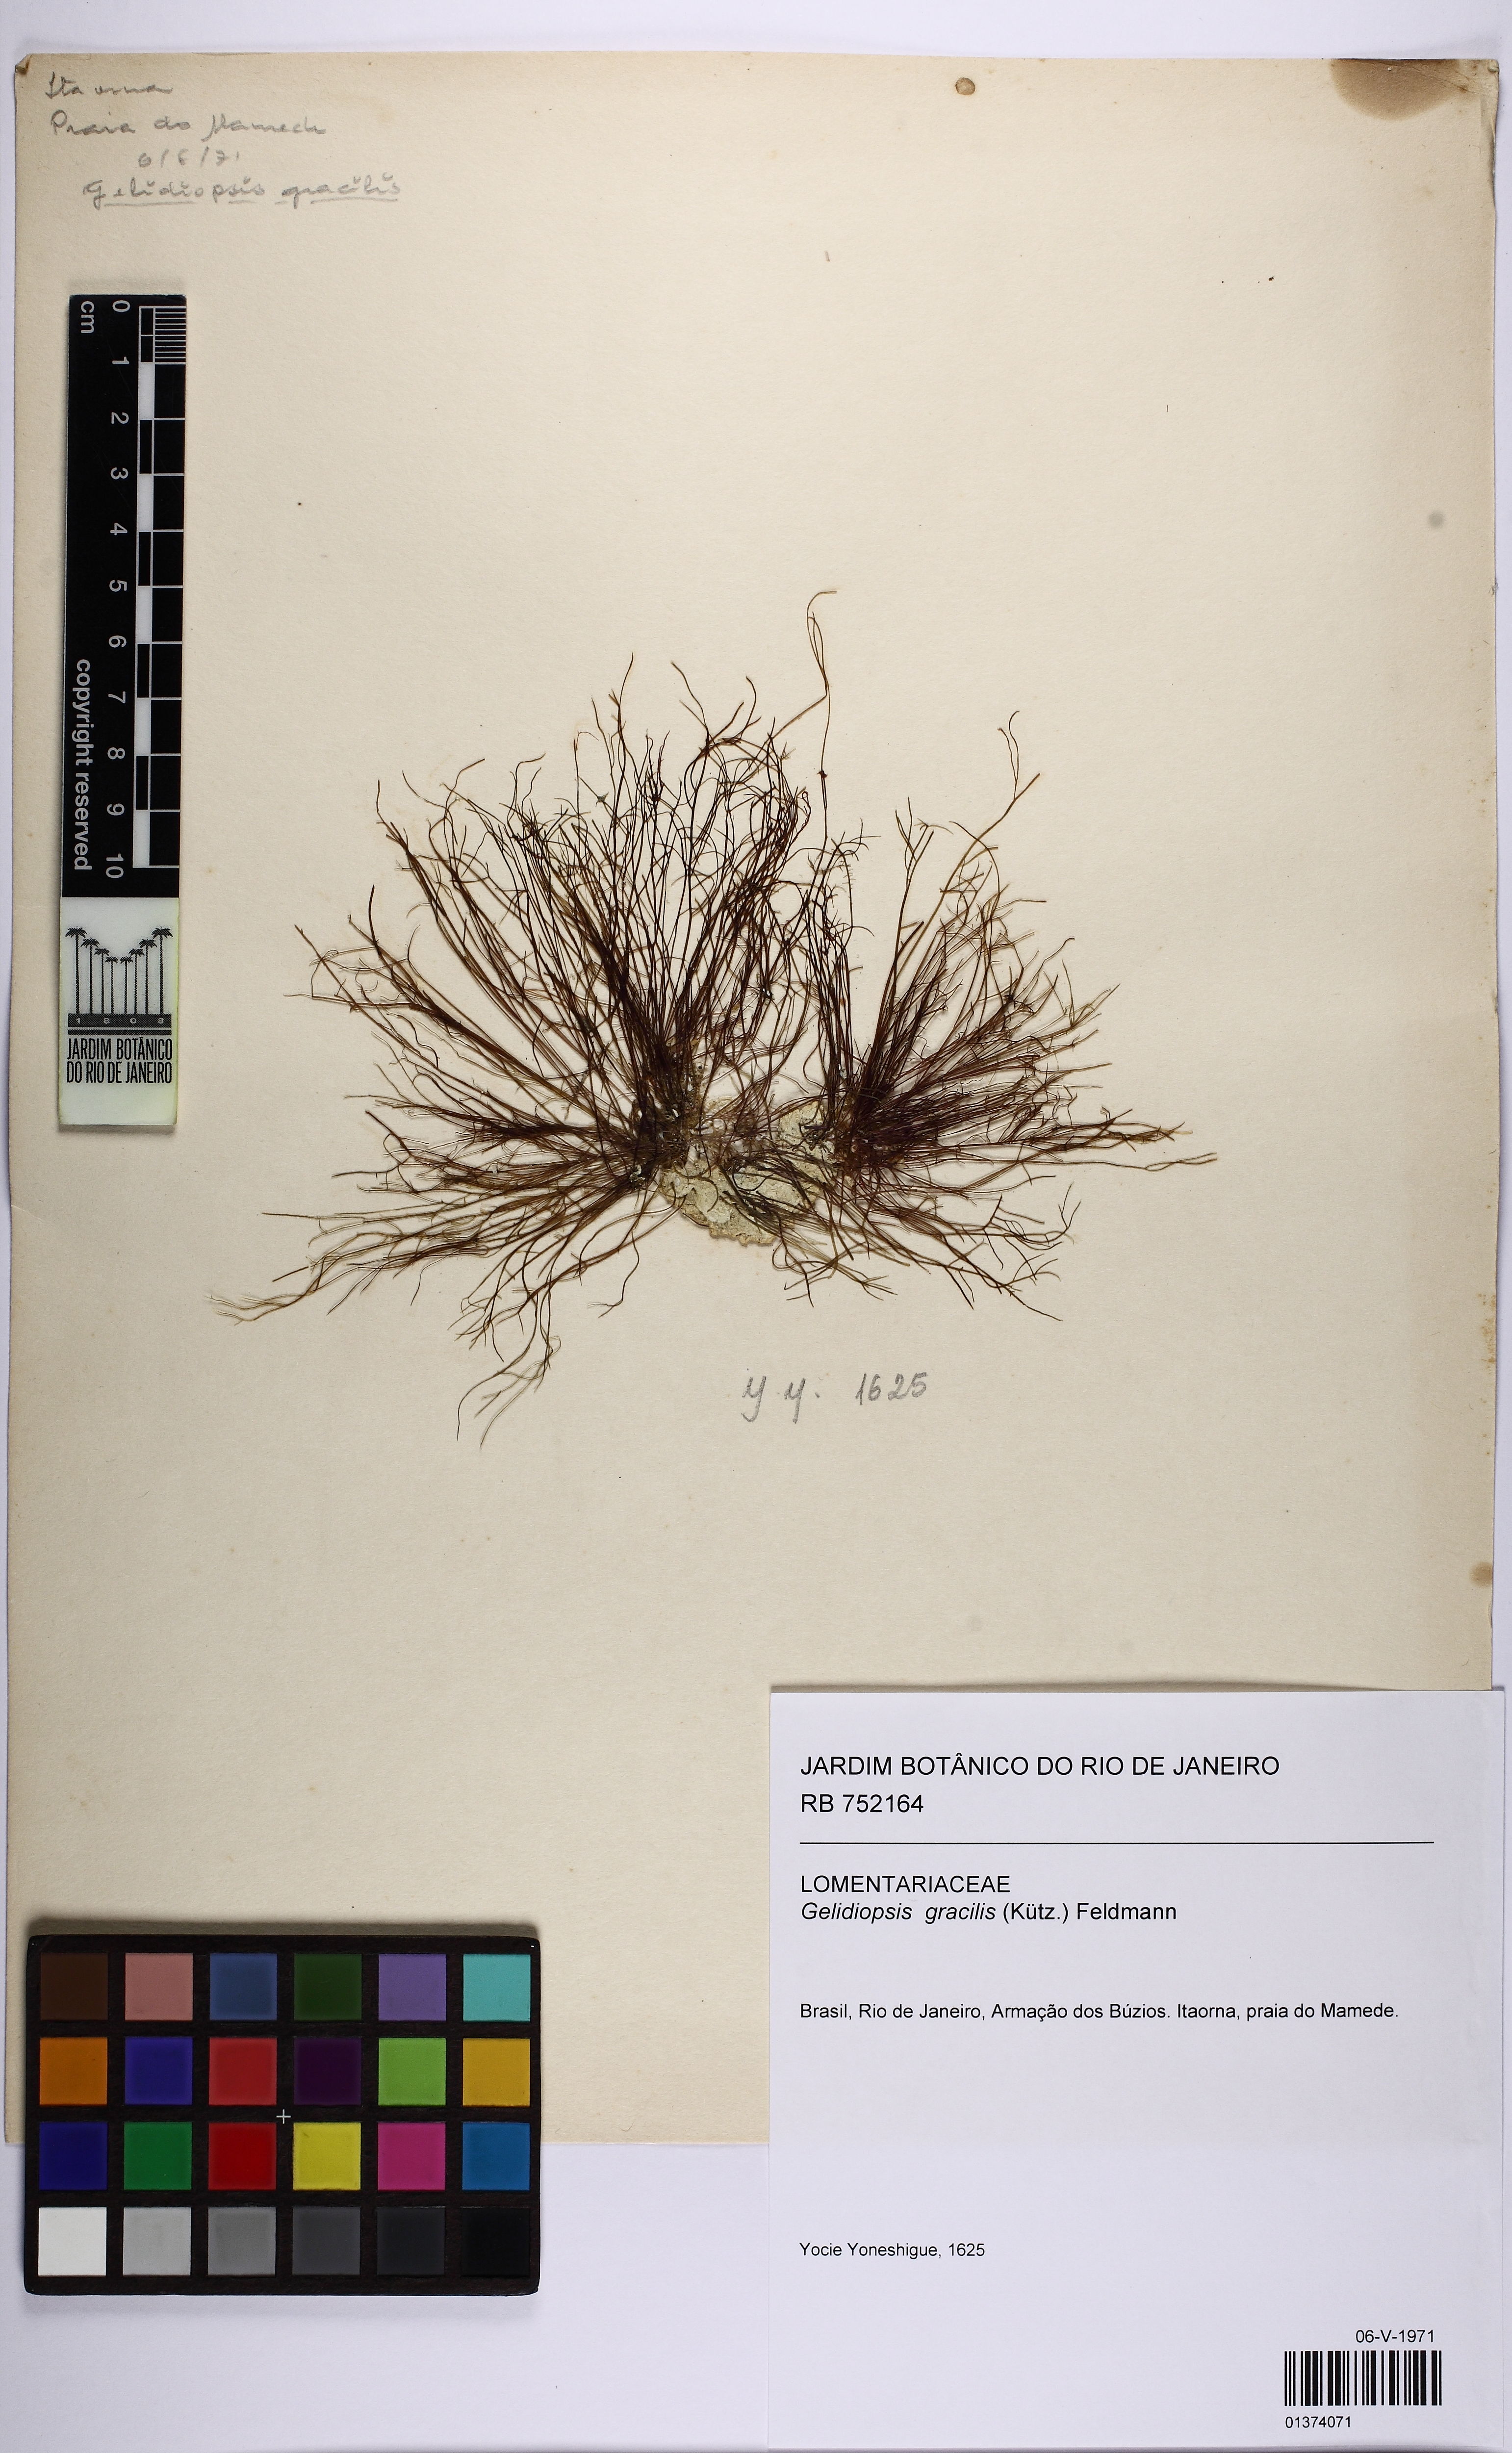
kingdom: Plantae
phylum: Rhodophyta
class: Florideophyceae
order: Rhodymeniales
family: Lomentariaceae
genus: Ceratodictyon
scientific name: Ceratodictyon variabile
